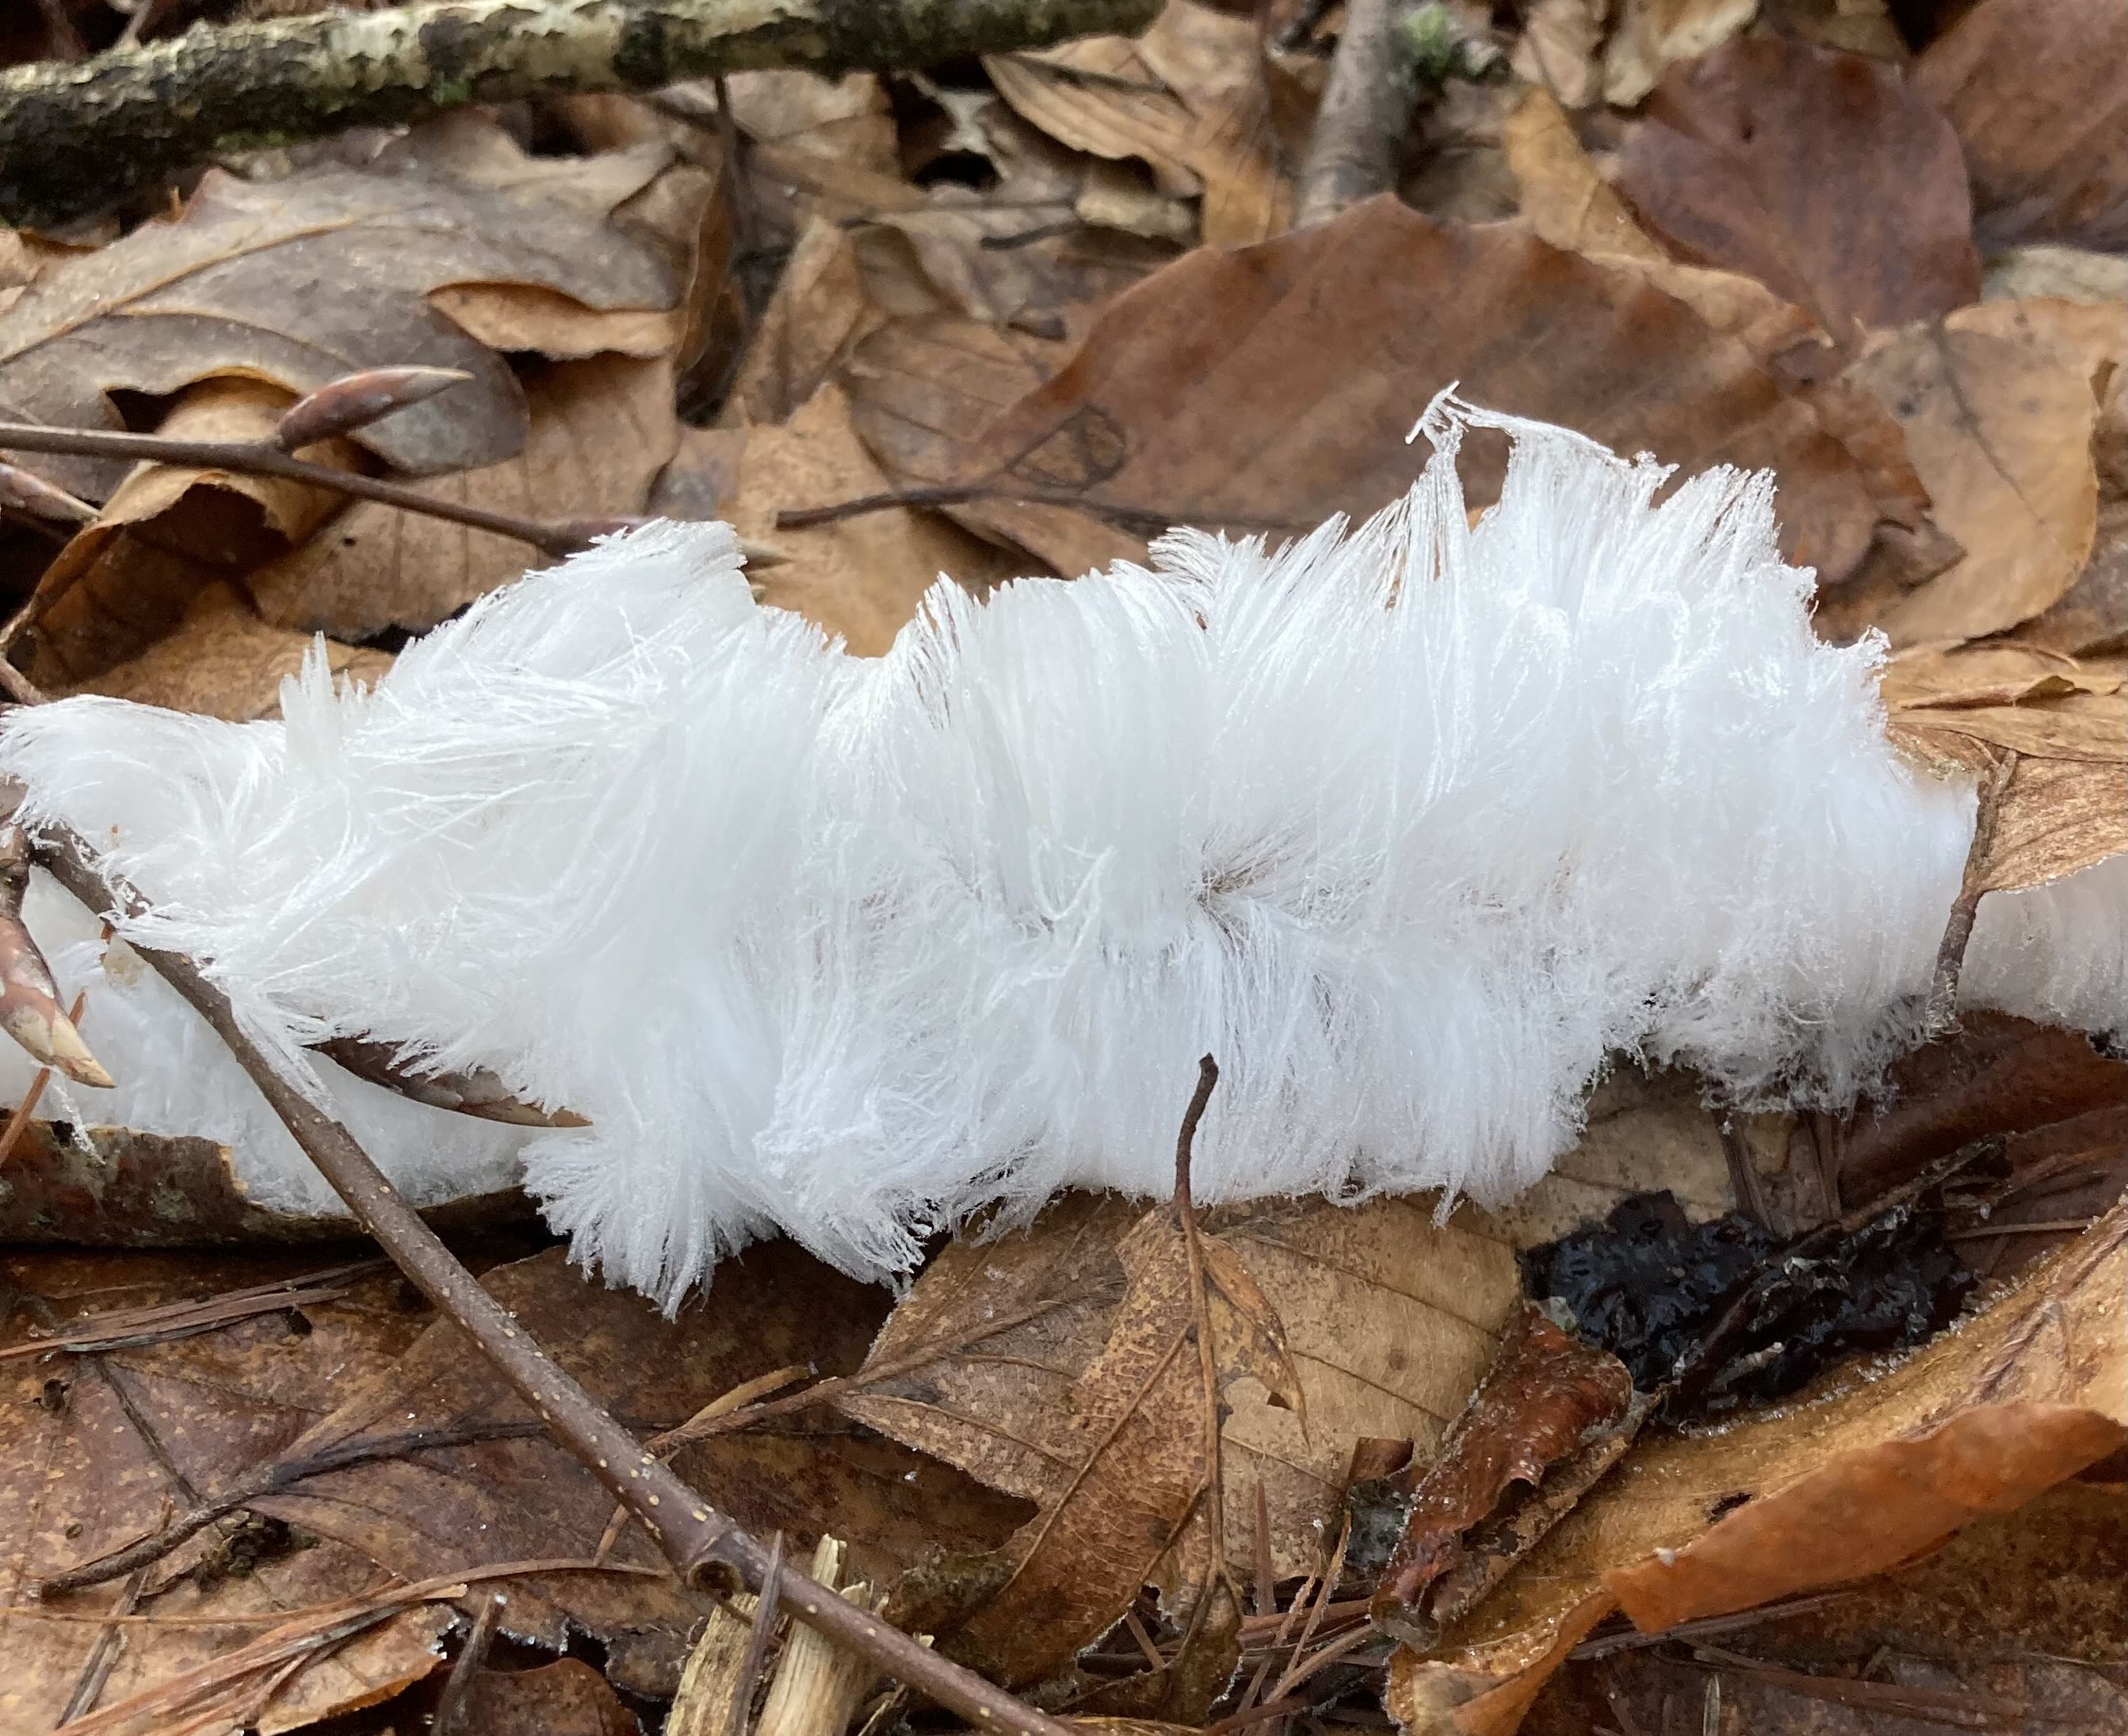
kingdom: Fungi
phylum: Basidiomycota
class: Tremellomycetes
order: Tremellales
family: Exidiaceae
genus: Exidiopsis
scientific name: Exidiopsis effusa
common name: smuk bævrehinde
